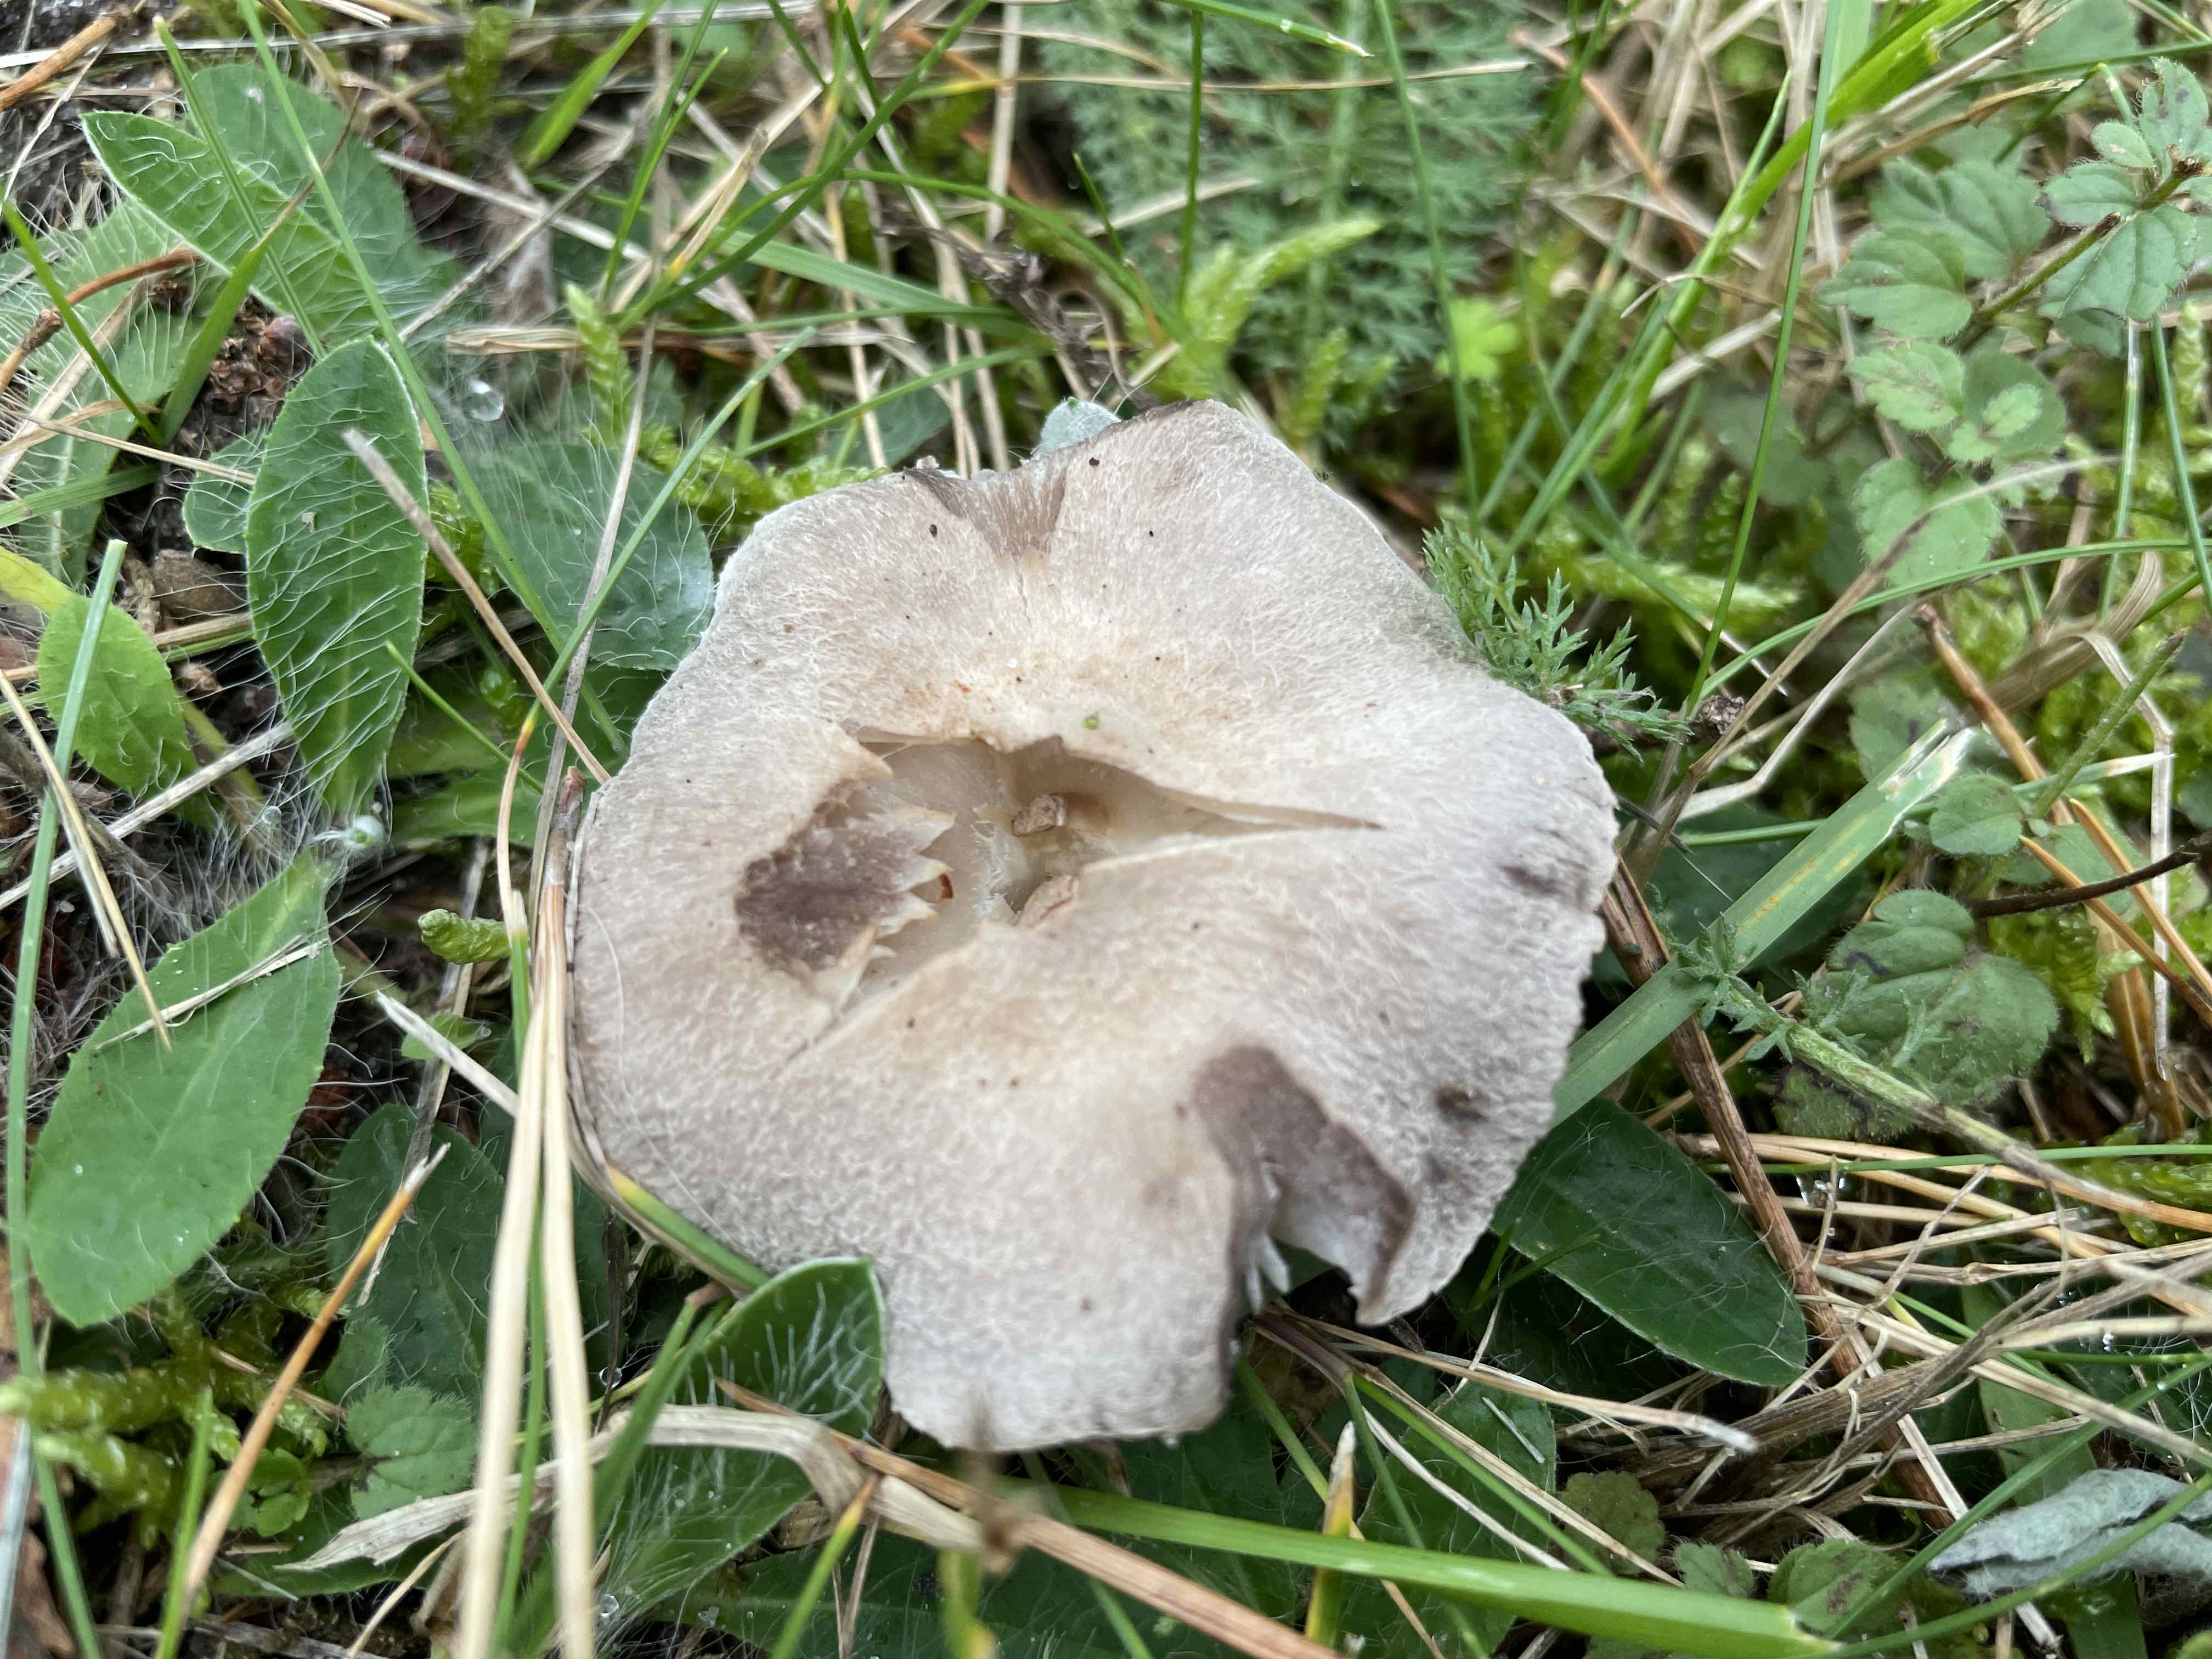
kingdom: Fungi
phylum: Basidiomycota
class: Agaricomycetes
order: Agaricales
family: Tricholomataceae
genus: Tricholoma
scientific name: Tricholoma terreum
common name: jordfarvet ridderhat
